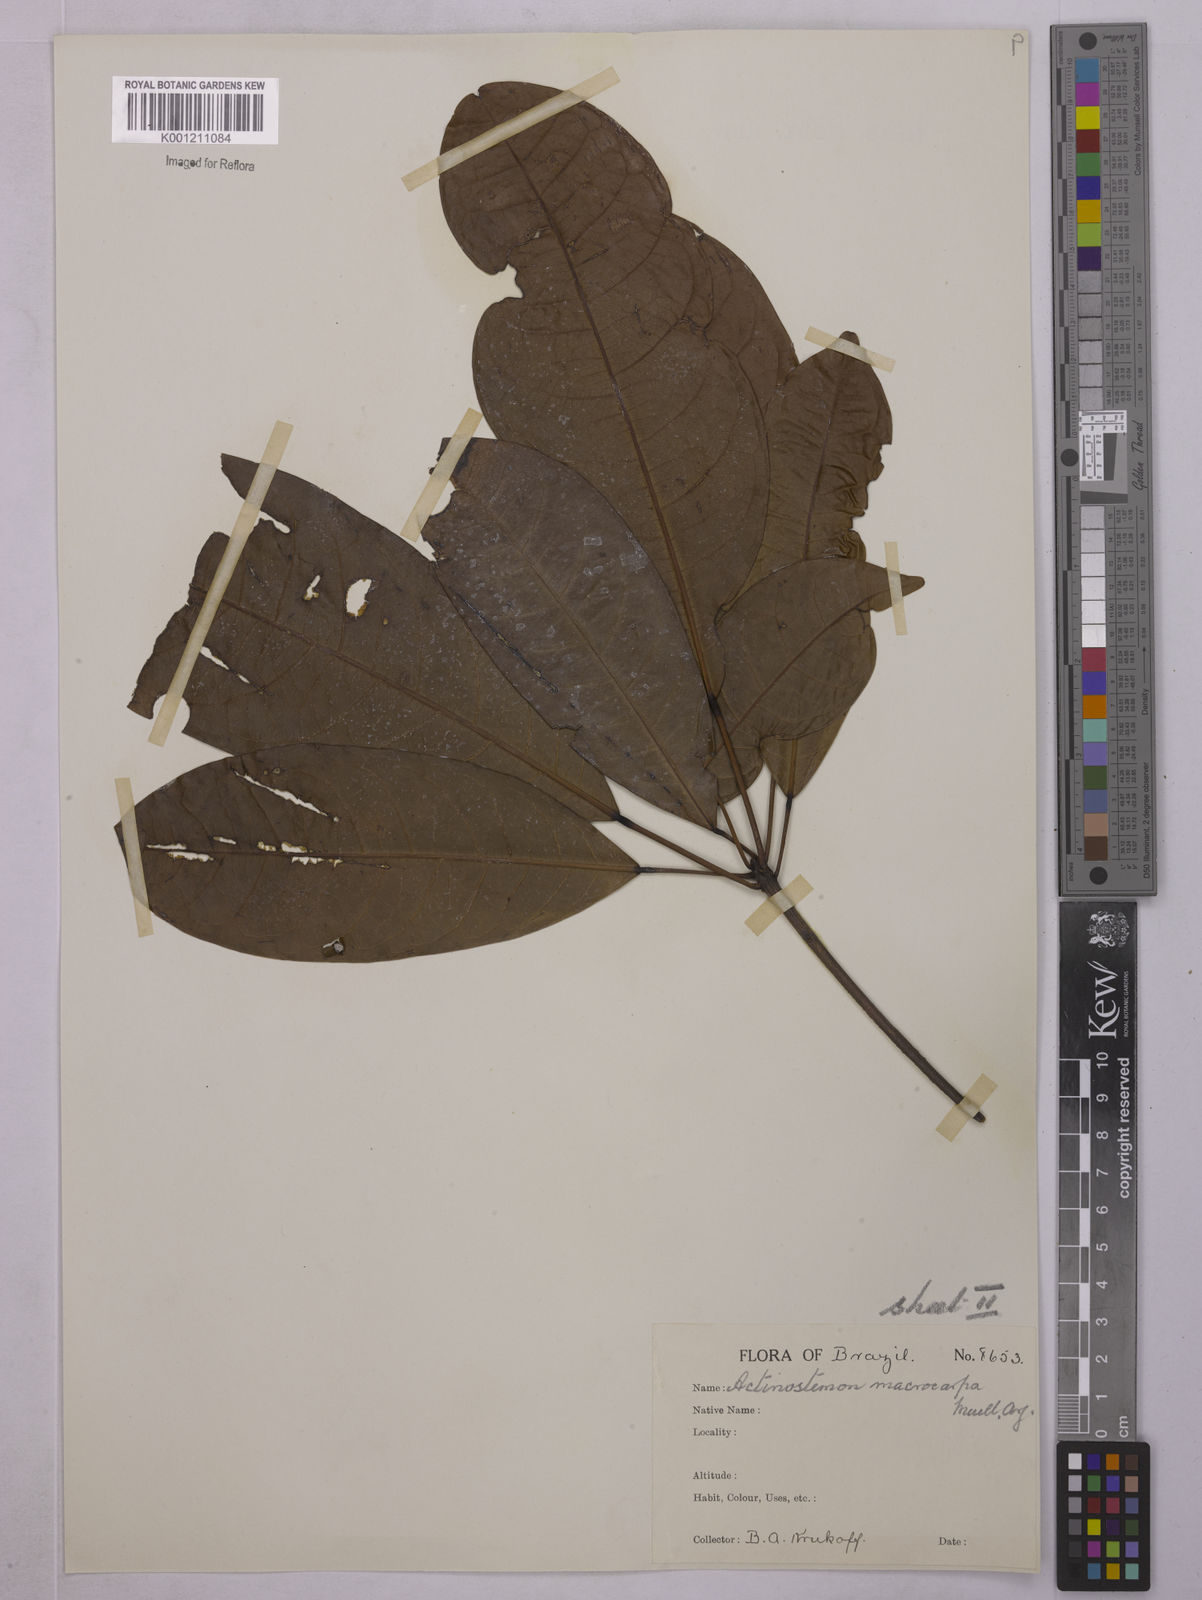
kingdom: Plantae
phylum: Tracheophyta
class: Magnoliopsida
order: Malpighiales
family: Euphorbiaceae
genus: Pseudosenefeldera
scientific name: Pseudosenefeldera
